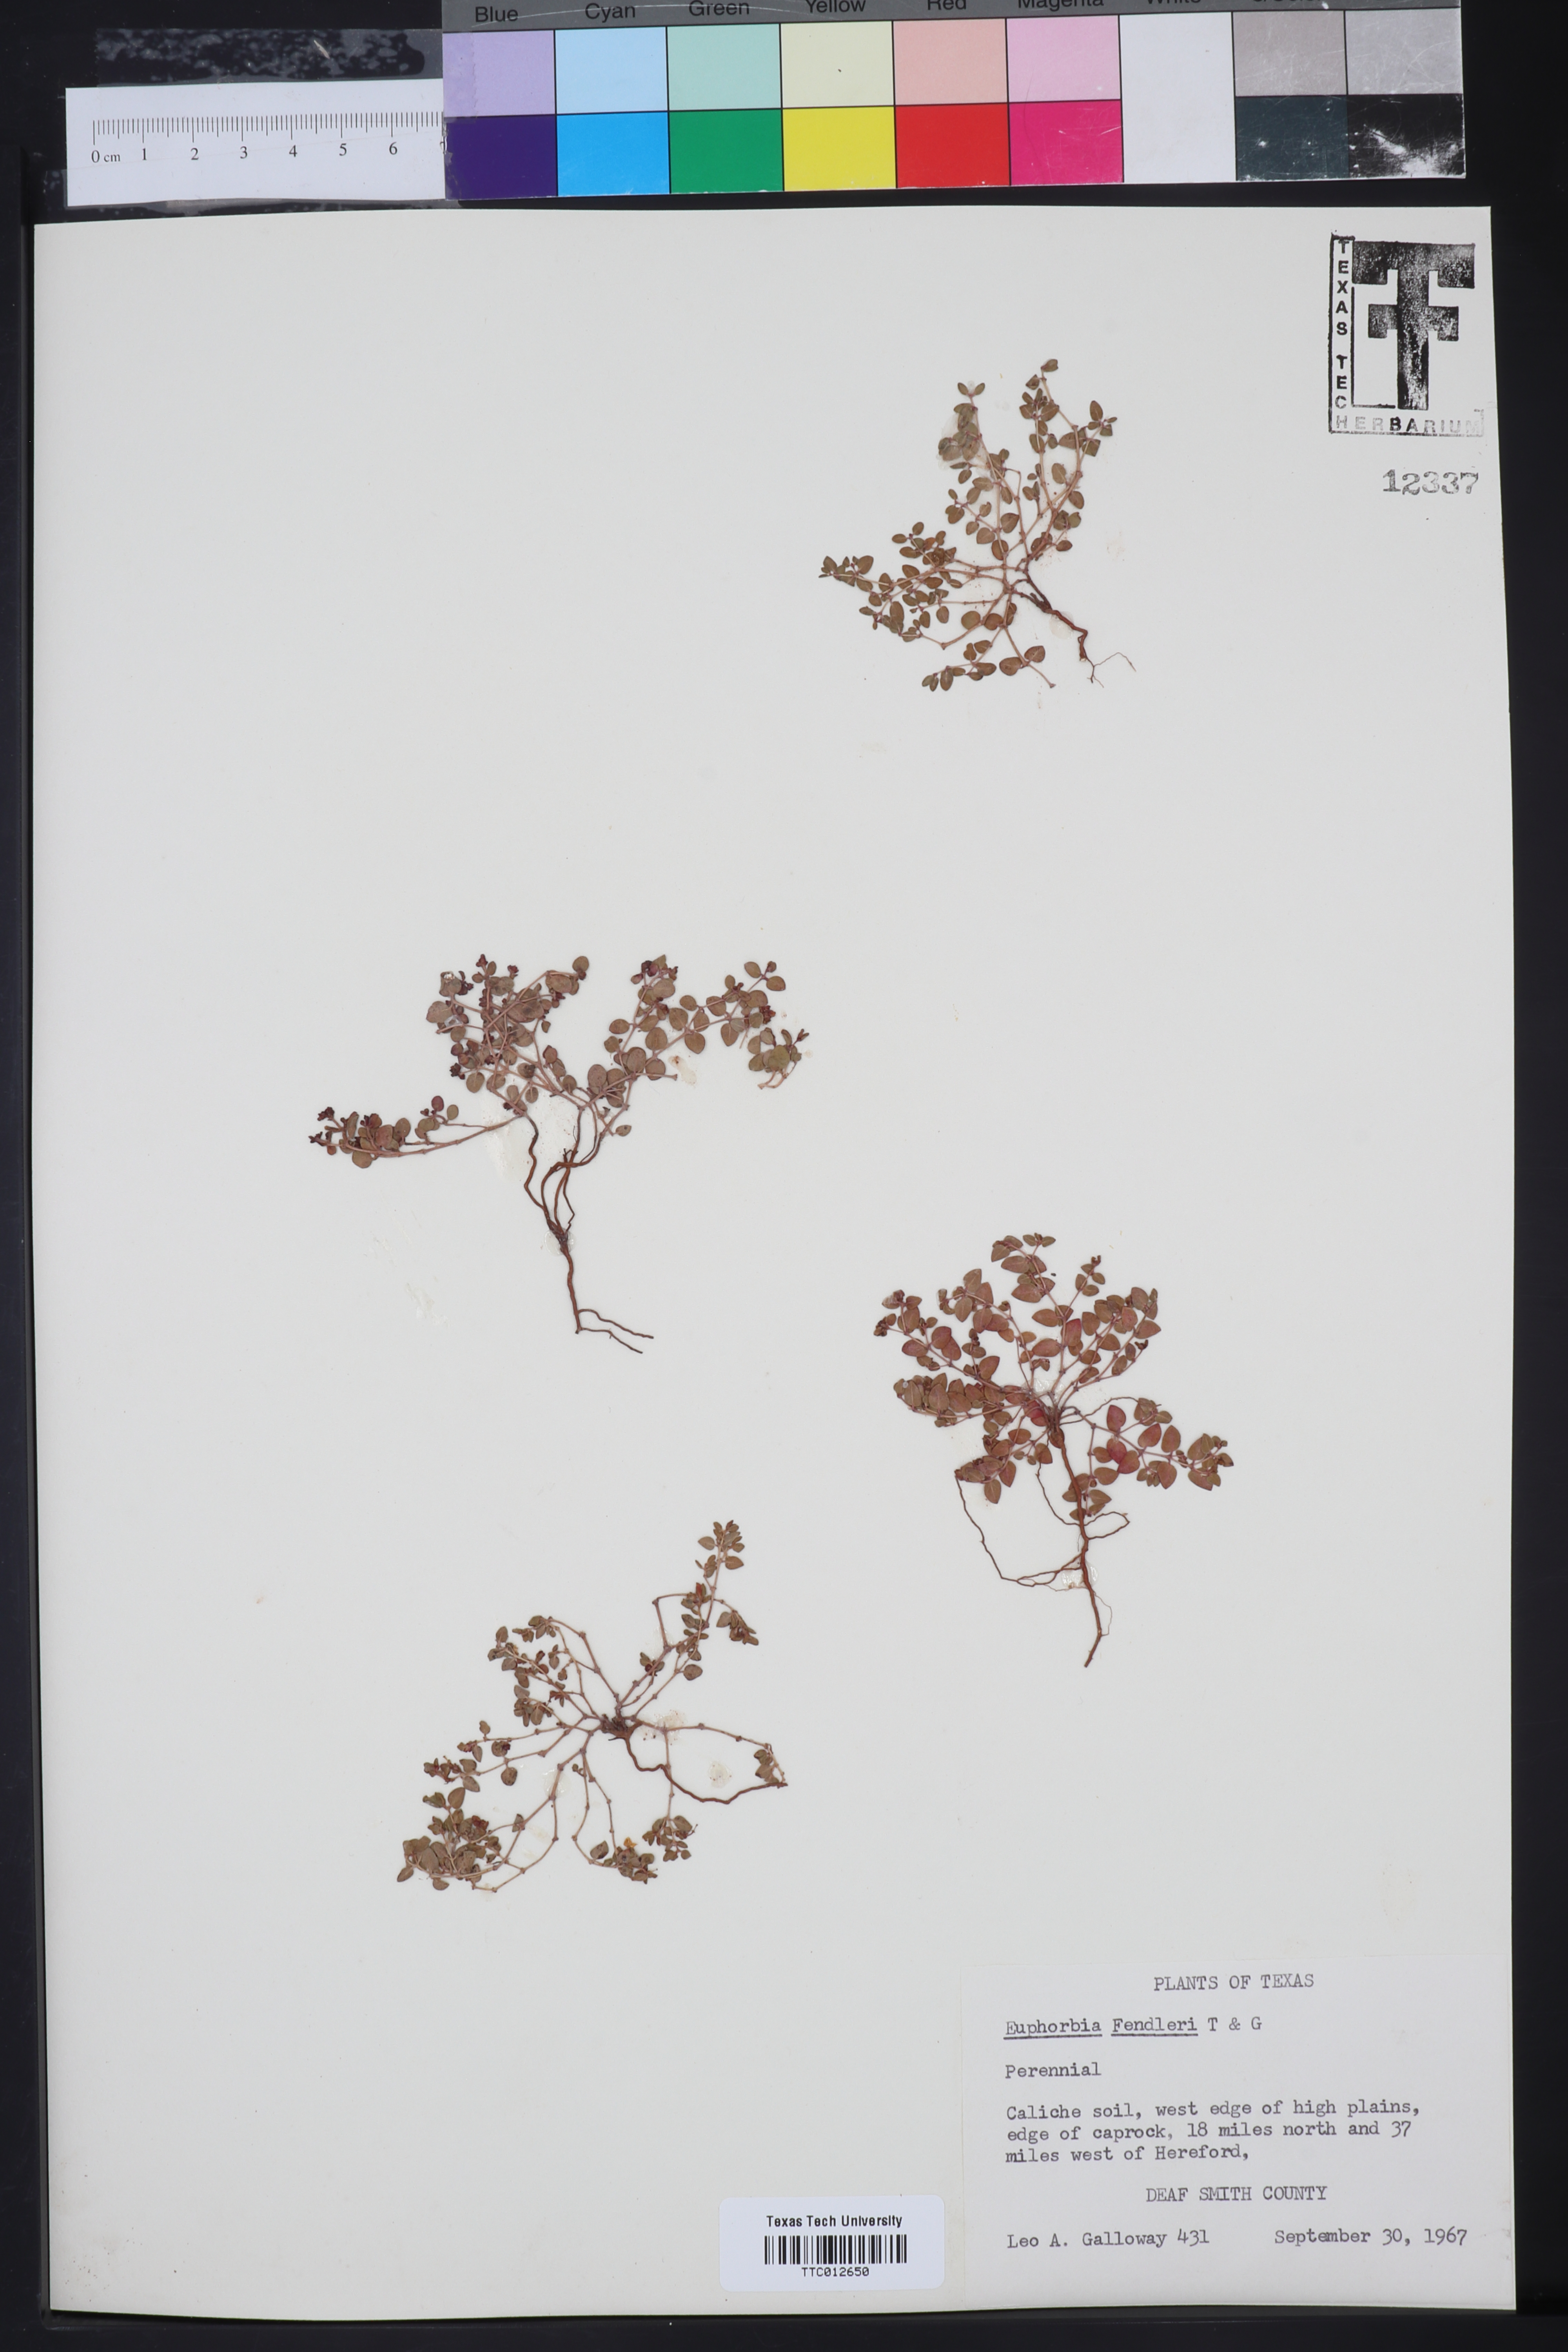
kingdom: Plantae
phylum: Tracheophyta
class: Magnoliopsida
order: Malpighiales
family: Euphorbiaceae
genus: Euphorbia
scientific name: Euphorbia fendleri
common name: Fendler's euphorbia
